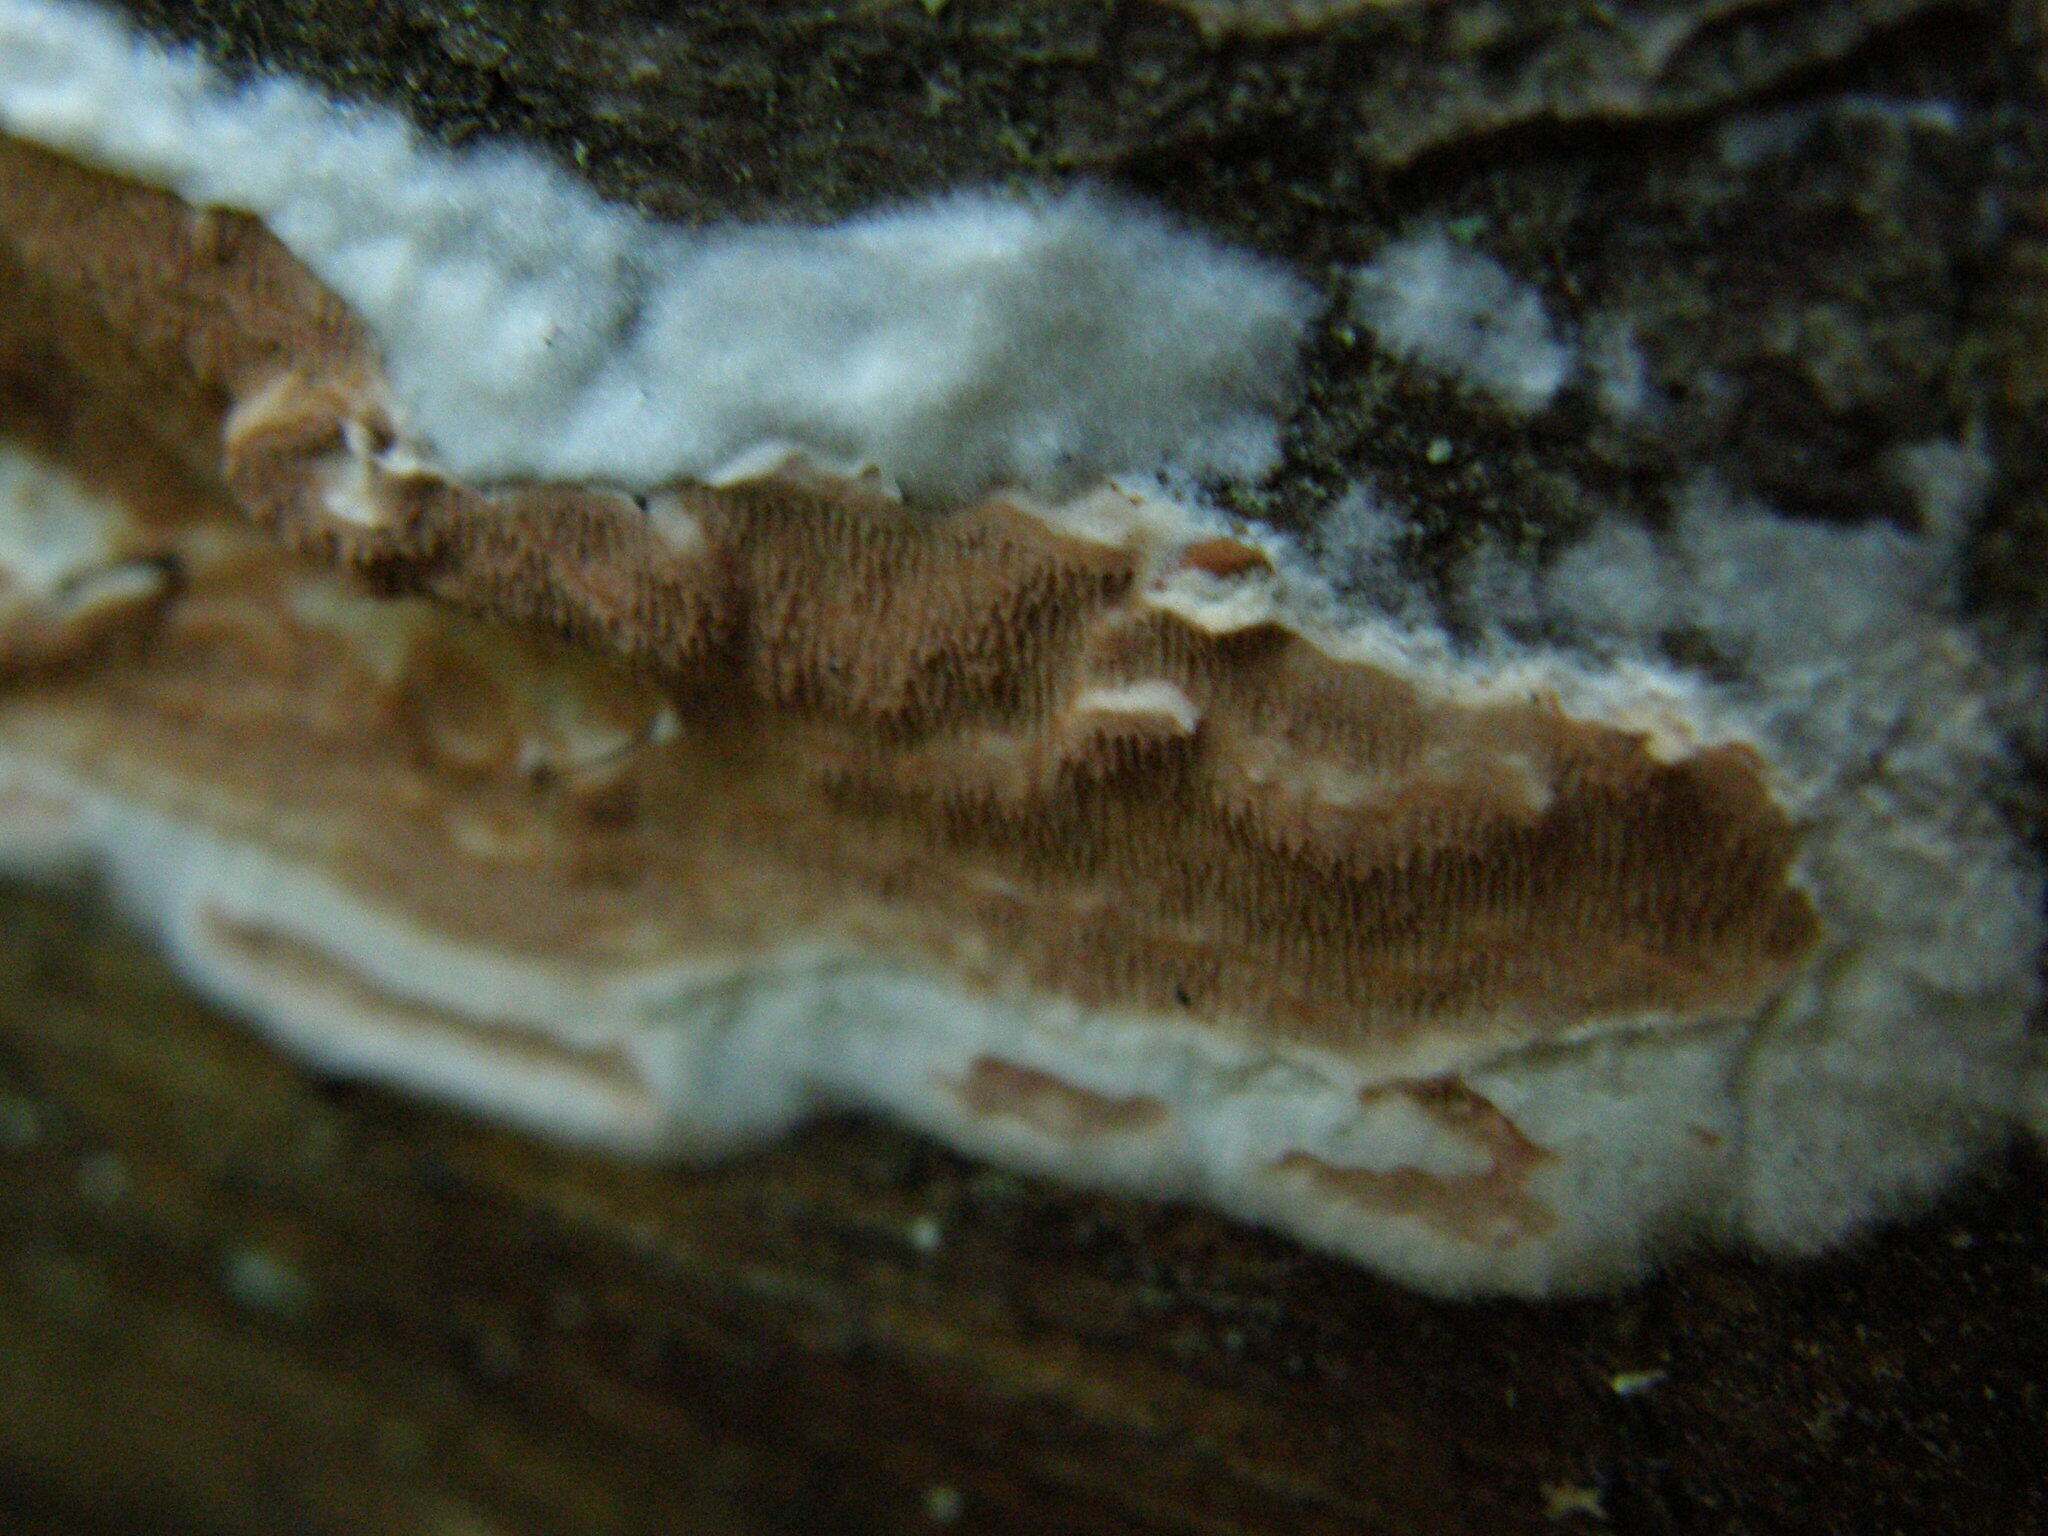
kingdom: Fungi
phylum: Basidiomycota
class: Agaricomycetes
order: Polyporales
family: Irpicaceae
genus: Meruliopsis
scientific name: Meruliopsis taxicola
